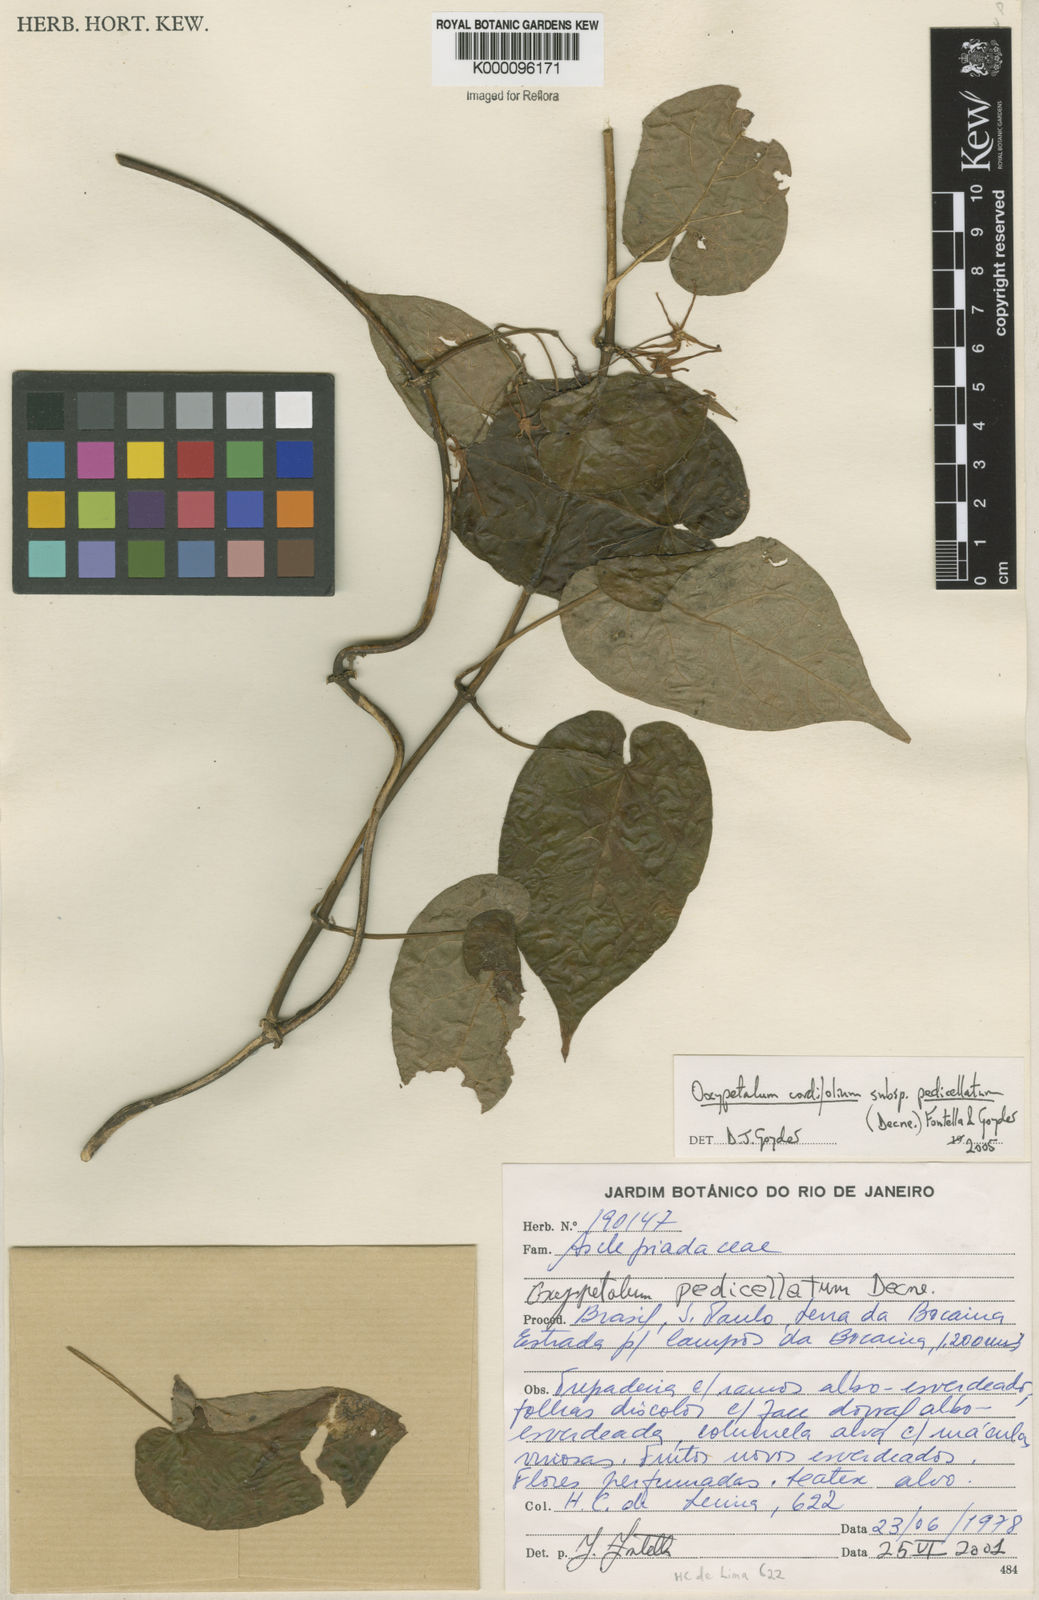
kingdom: Plantae
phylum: Tracheophyta
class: Magnoliopsida
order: Gentianales
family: Apocynaceae
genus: Oxypetalum
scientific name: Oxypetalum cordifolium
